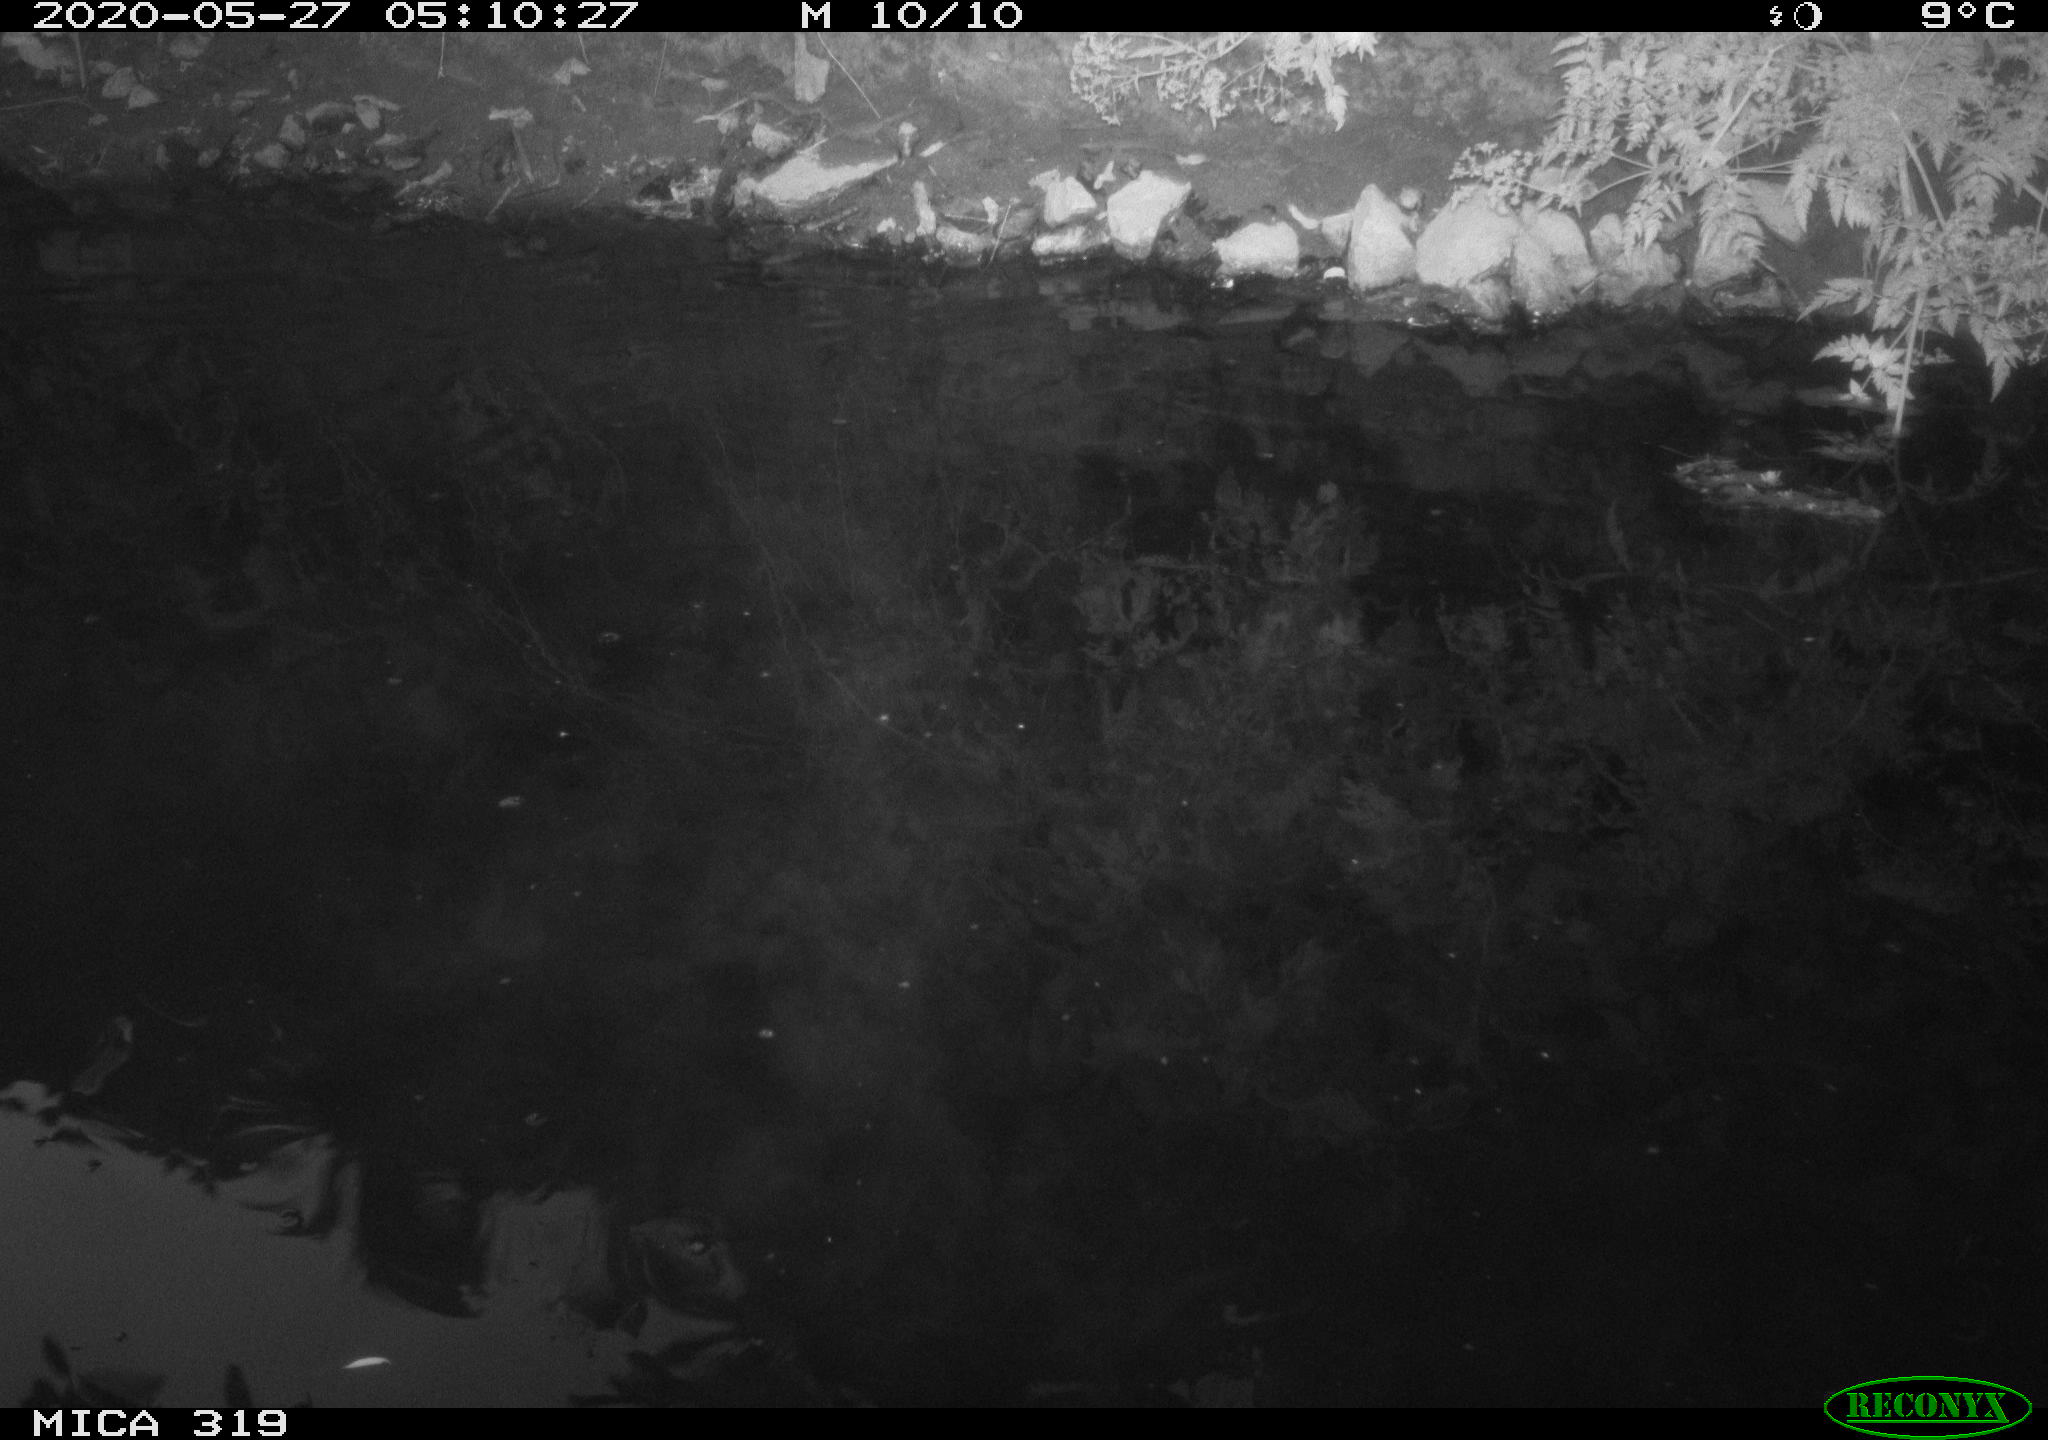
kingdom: Animalia
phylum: Chordata
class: Aves
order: Anseriformes
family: Anatidae
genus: Anas
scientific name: Anas platyrhynchos
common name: Mallard
